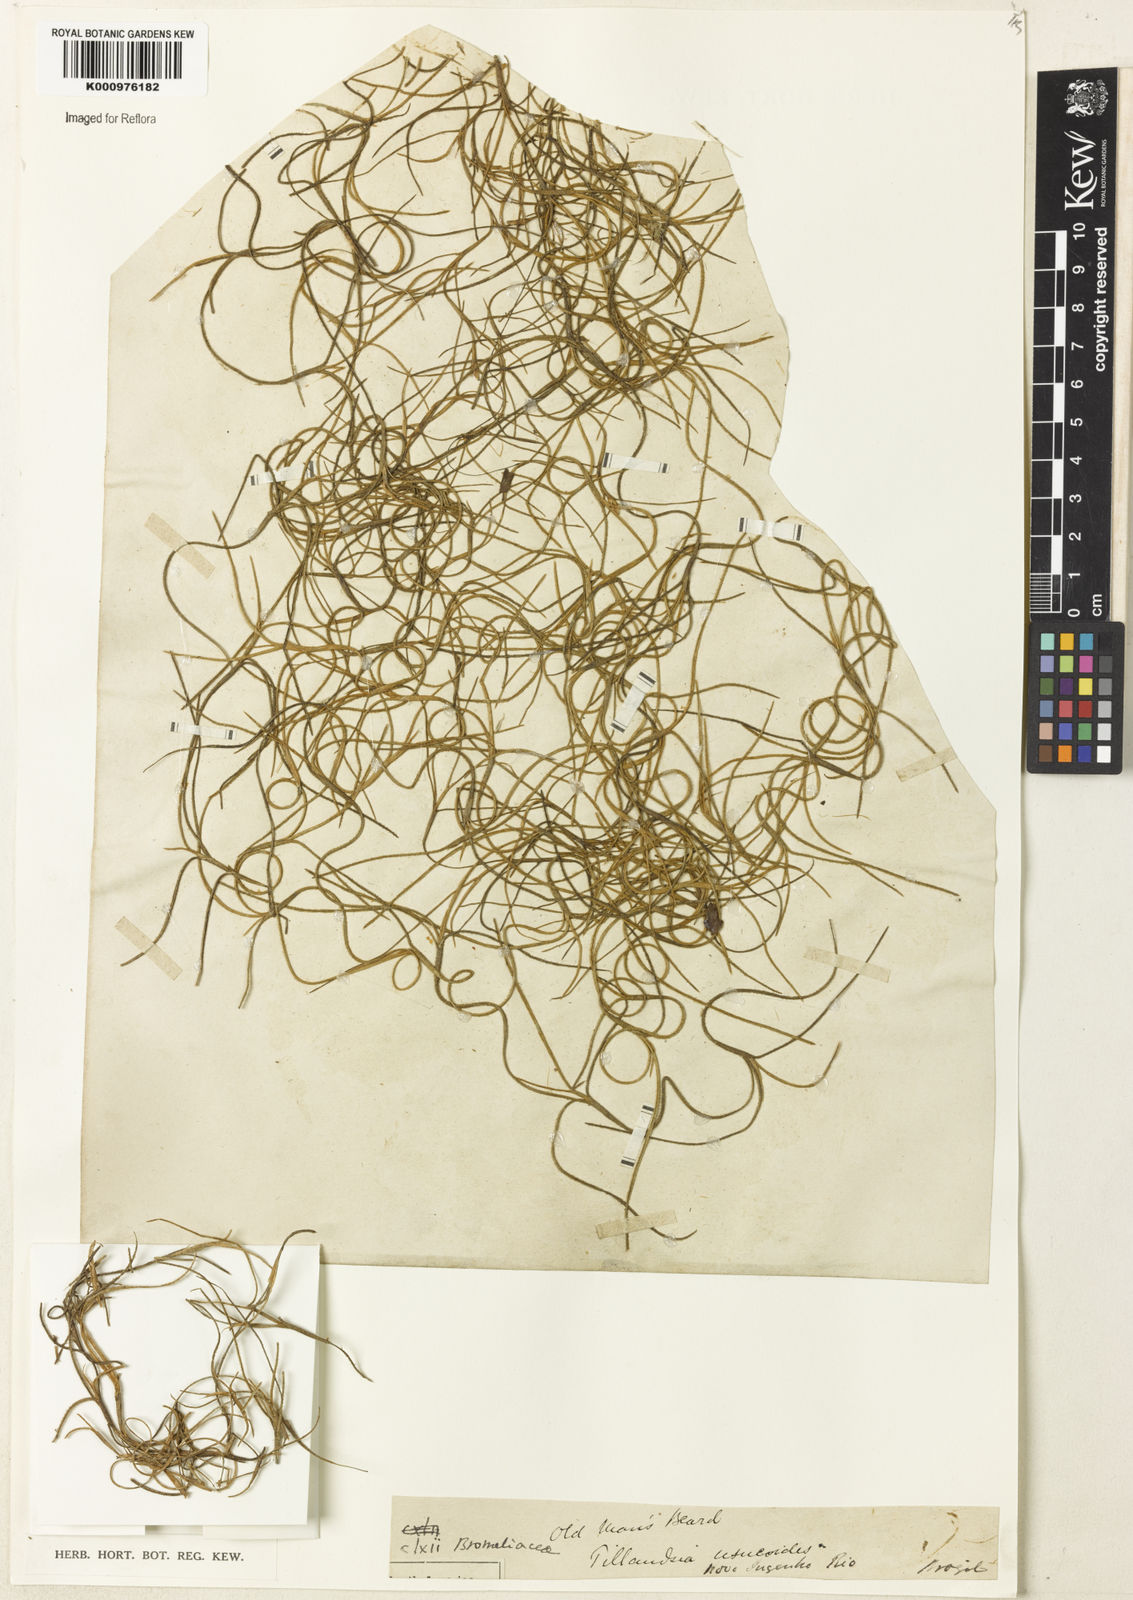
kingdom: Plantae
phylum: Tracheophyta
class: Liliopsida
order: Poales
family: Bromeliaceae
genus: Tillandsia
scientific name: Tillandsia usneoides
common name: Spanish moss
